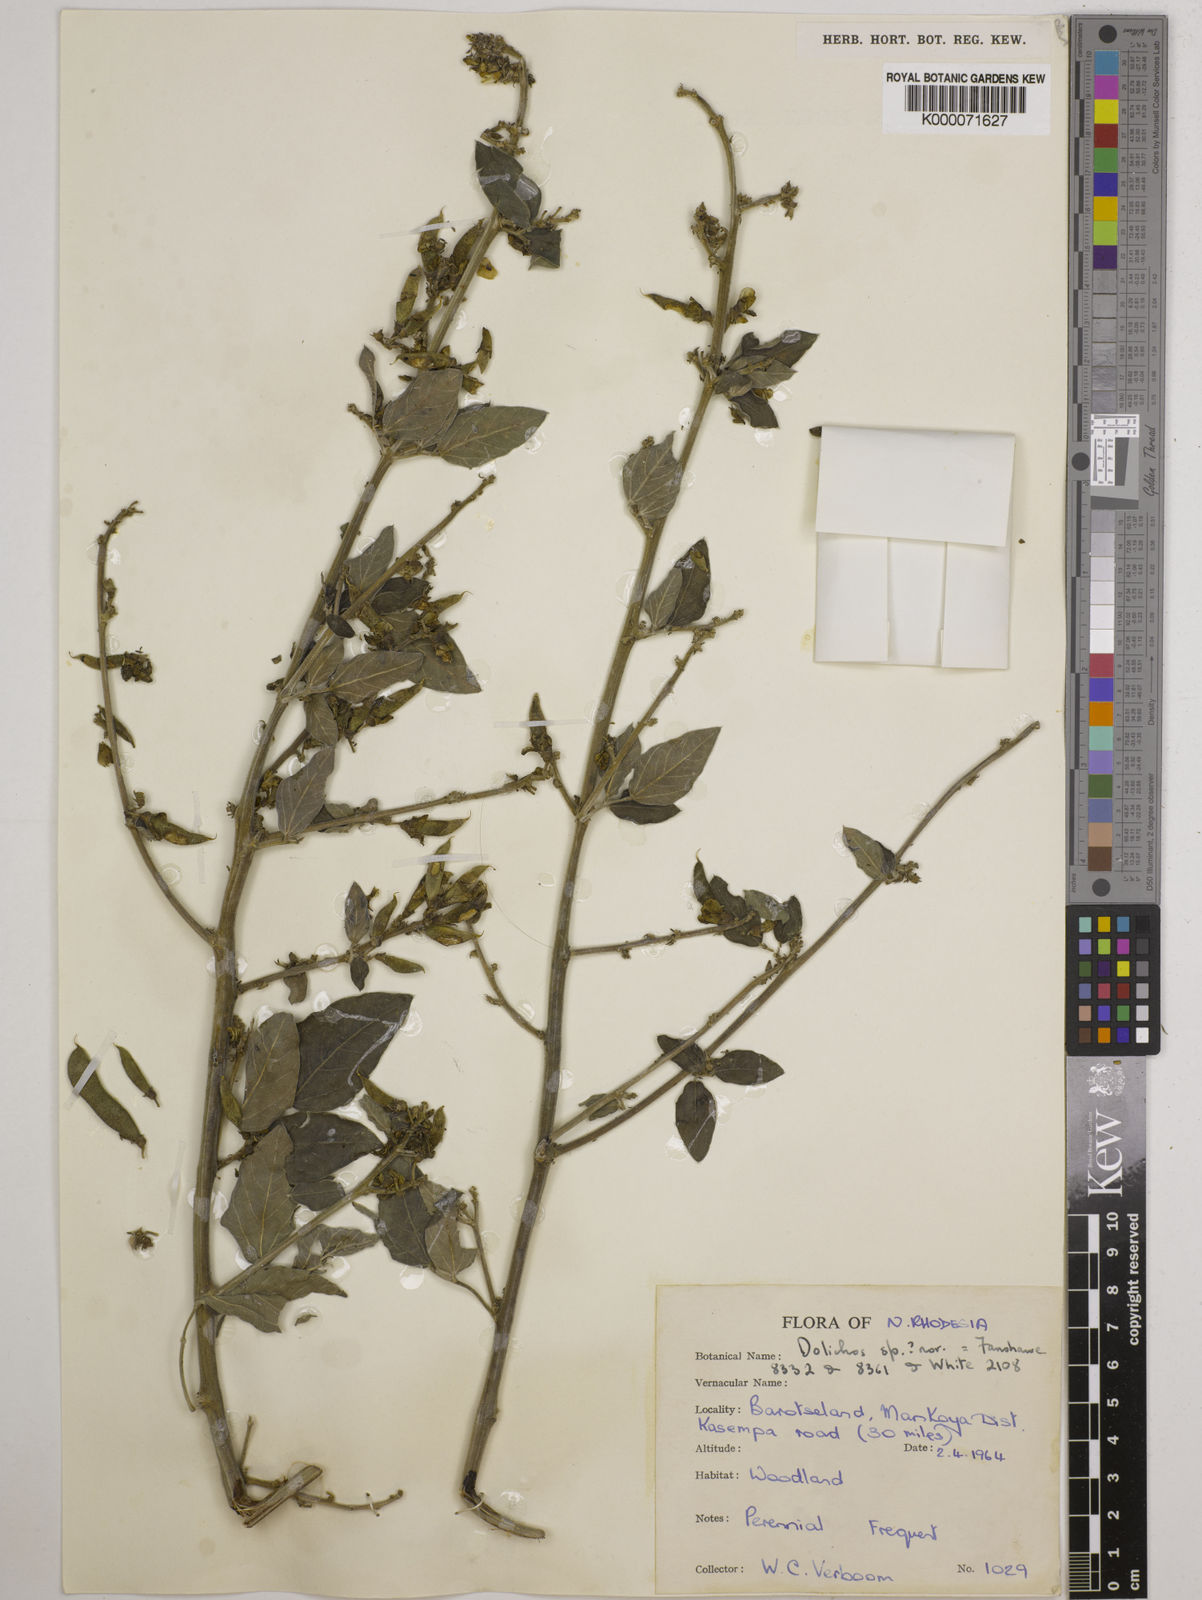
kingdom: Plantae
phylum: Tracheophyta
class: Magnoliopsida
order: Fabales
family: Fabaceae
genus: Dolichos
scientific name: Dolichos brevidentatus
